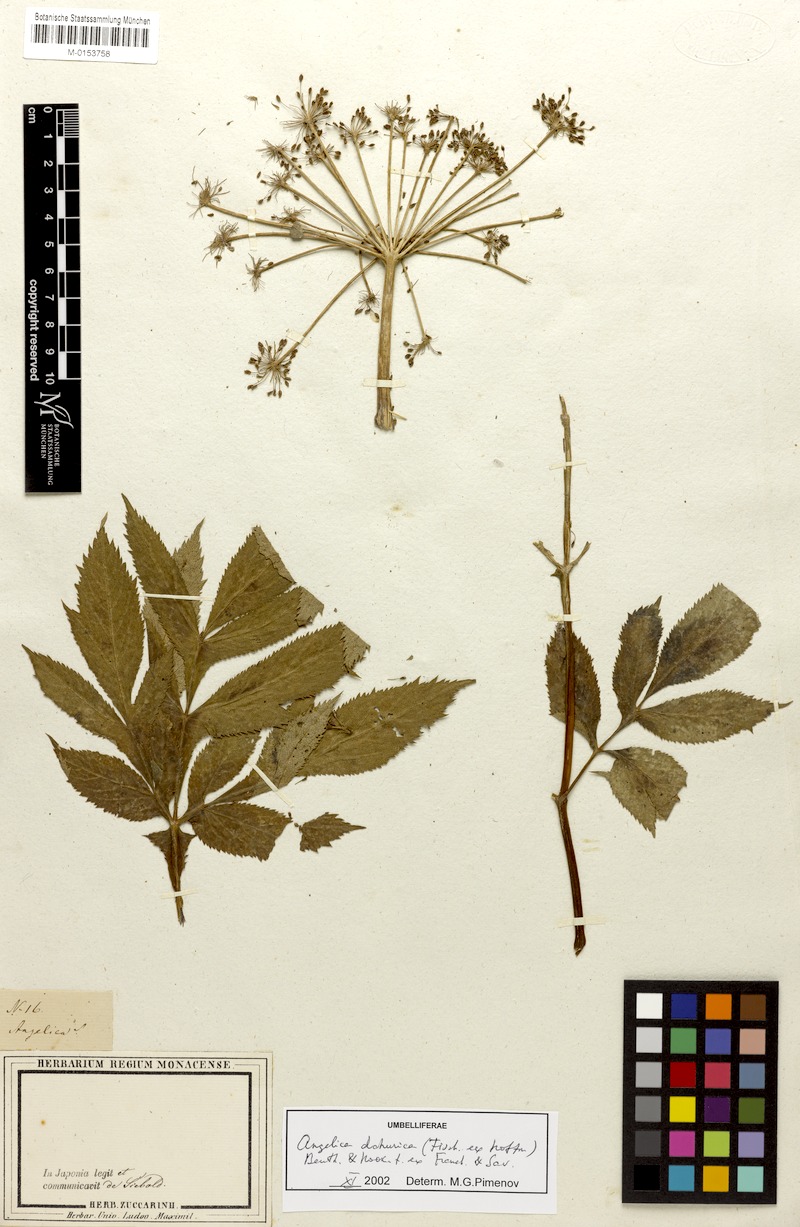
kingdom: Plantae
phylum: Tracheophyta
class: Magnoliopsida
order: Apiales
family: Apiaceae
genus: Angelica
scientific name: Angelica dahurica
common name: Dahurian angelica
